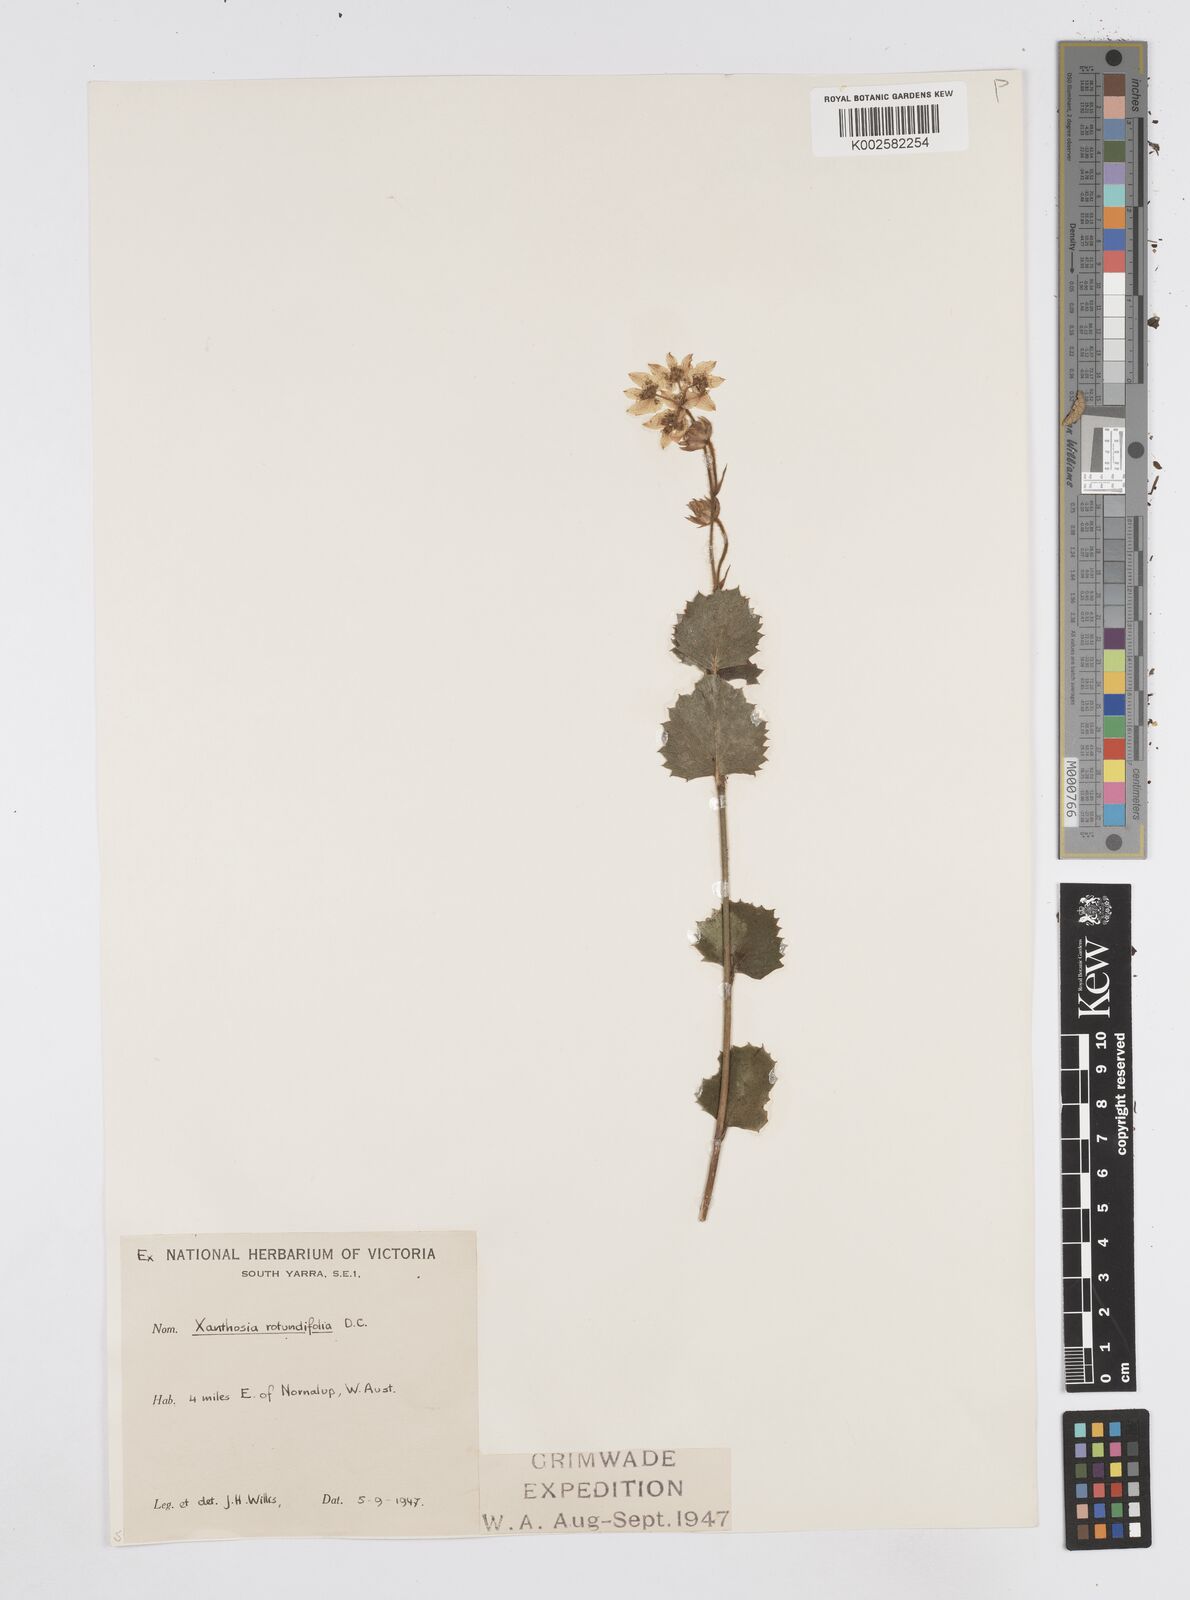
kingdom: Plantae
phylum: Tracheophyta
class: Magnoliopsida
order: Apiales
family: Apiaceae
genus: Xanthosia
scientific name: Xanthosia rotundifolia
